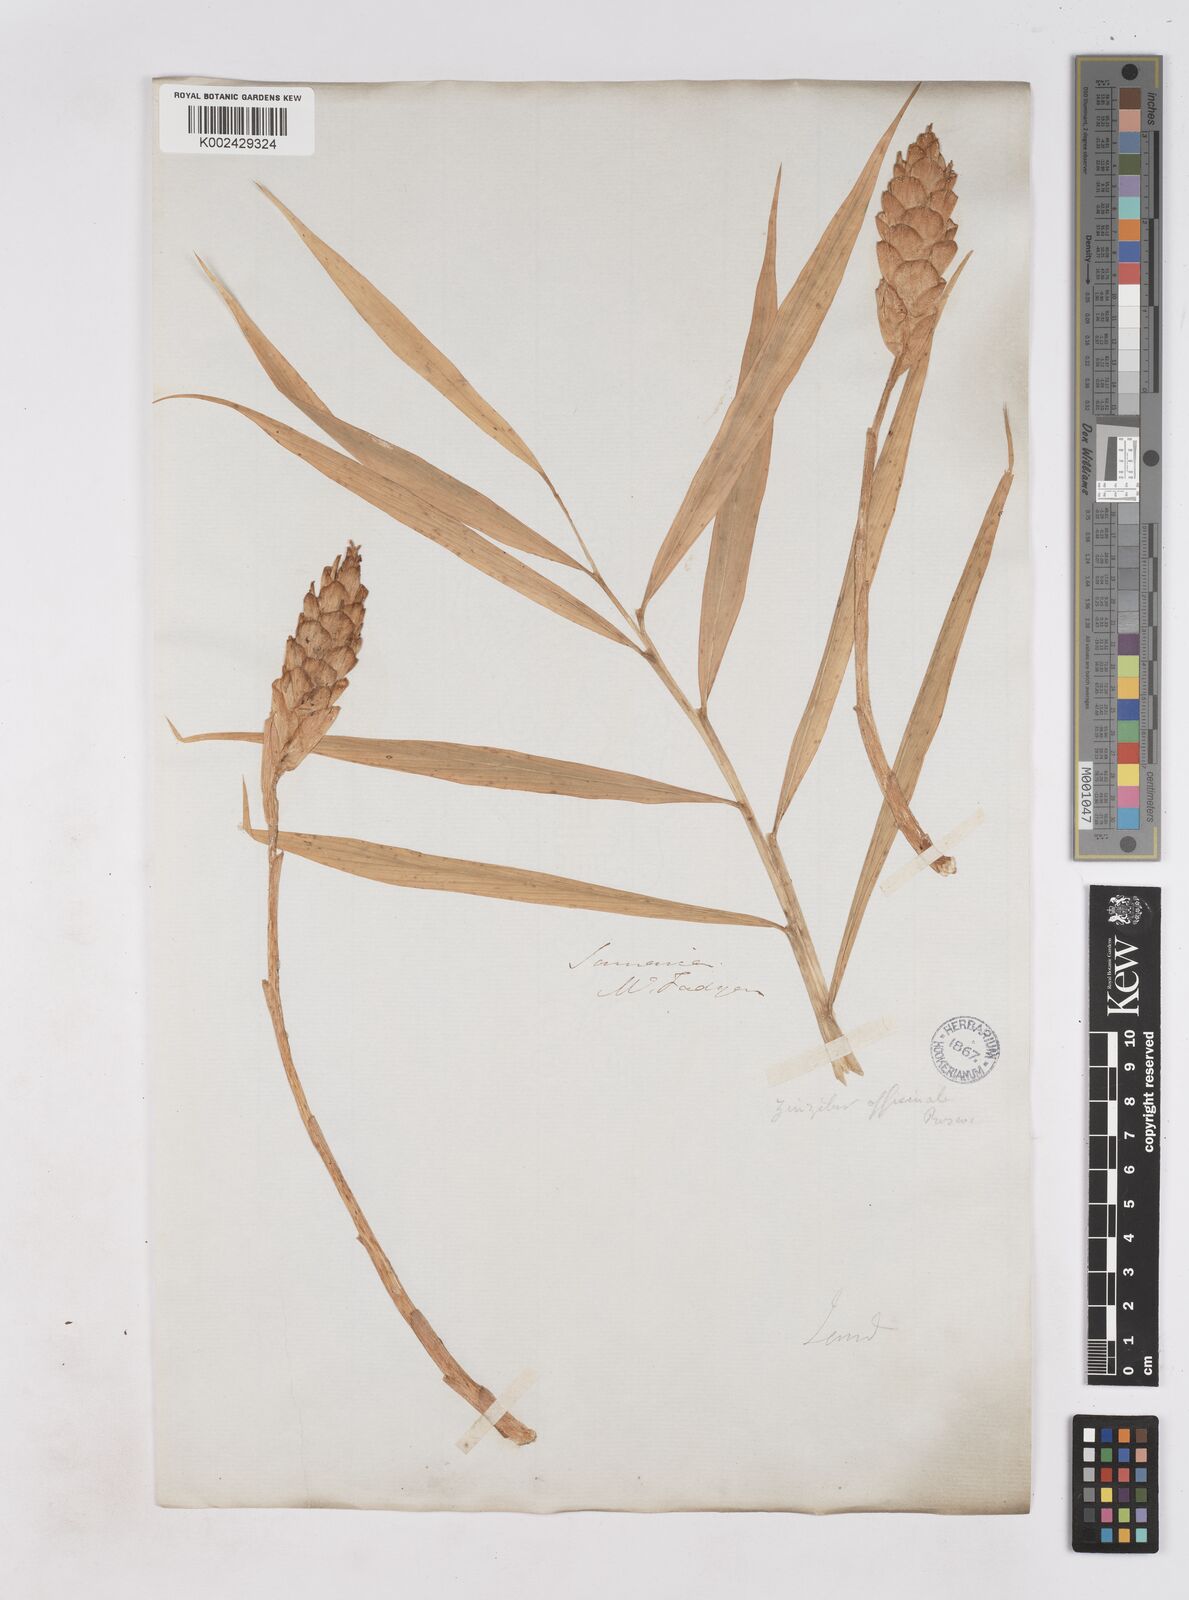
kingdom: Plantae
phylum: Tracheophyta
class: Liliopsida
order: Zingiberales
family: Zingiberaceae
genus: Zingiber
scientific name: Zingiber officinale
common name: Ginger
